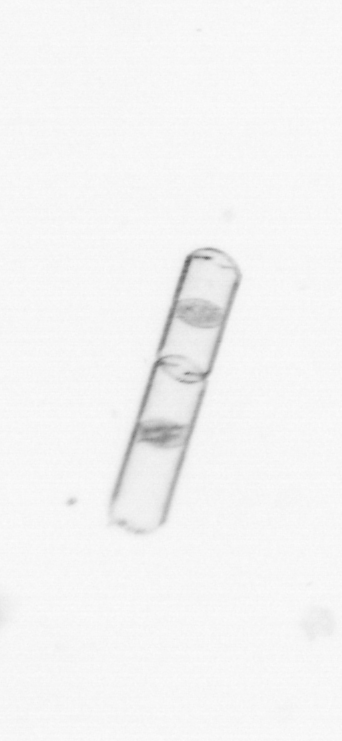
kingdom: Chromista
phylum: Ochrophyta
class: Bacillariophyceae
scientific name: Bacillariophyceae
